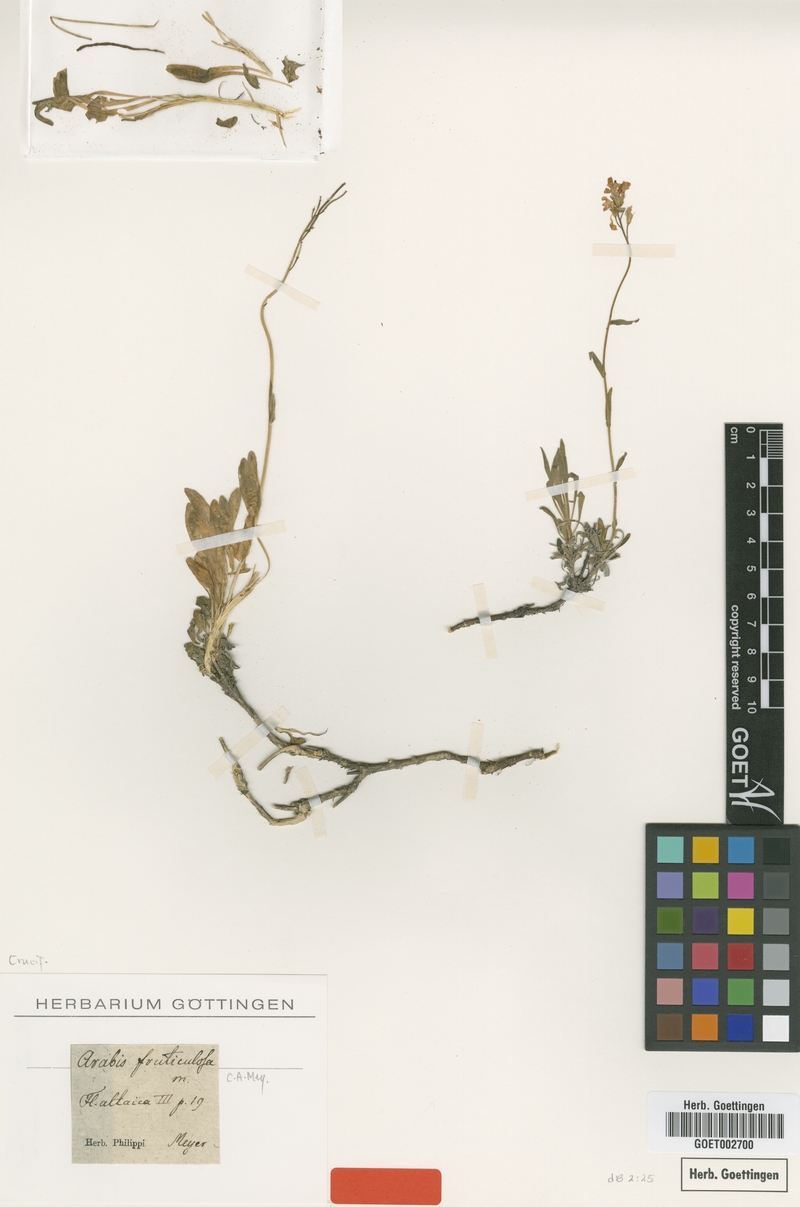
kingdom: Plantae
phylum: Tracheophyta
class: Magnoliopsida
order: Brassicales
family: Brassicaceae
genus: Dendroarabis
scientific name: Dendroarabis fruticulosa
